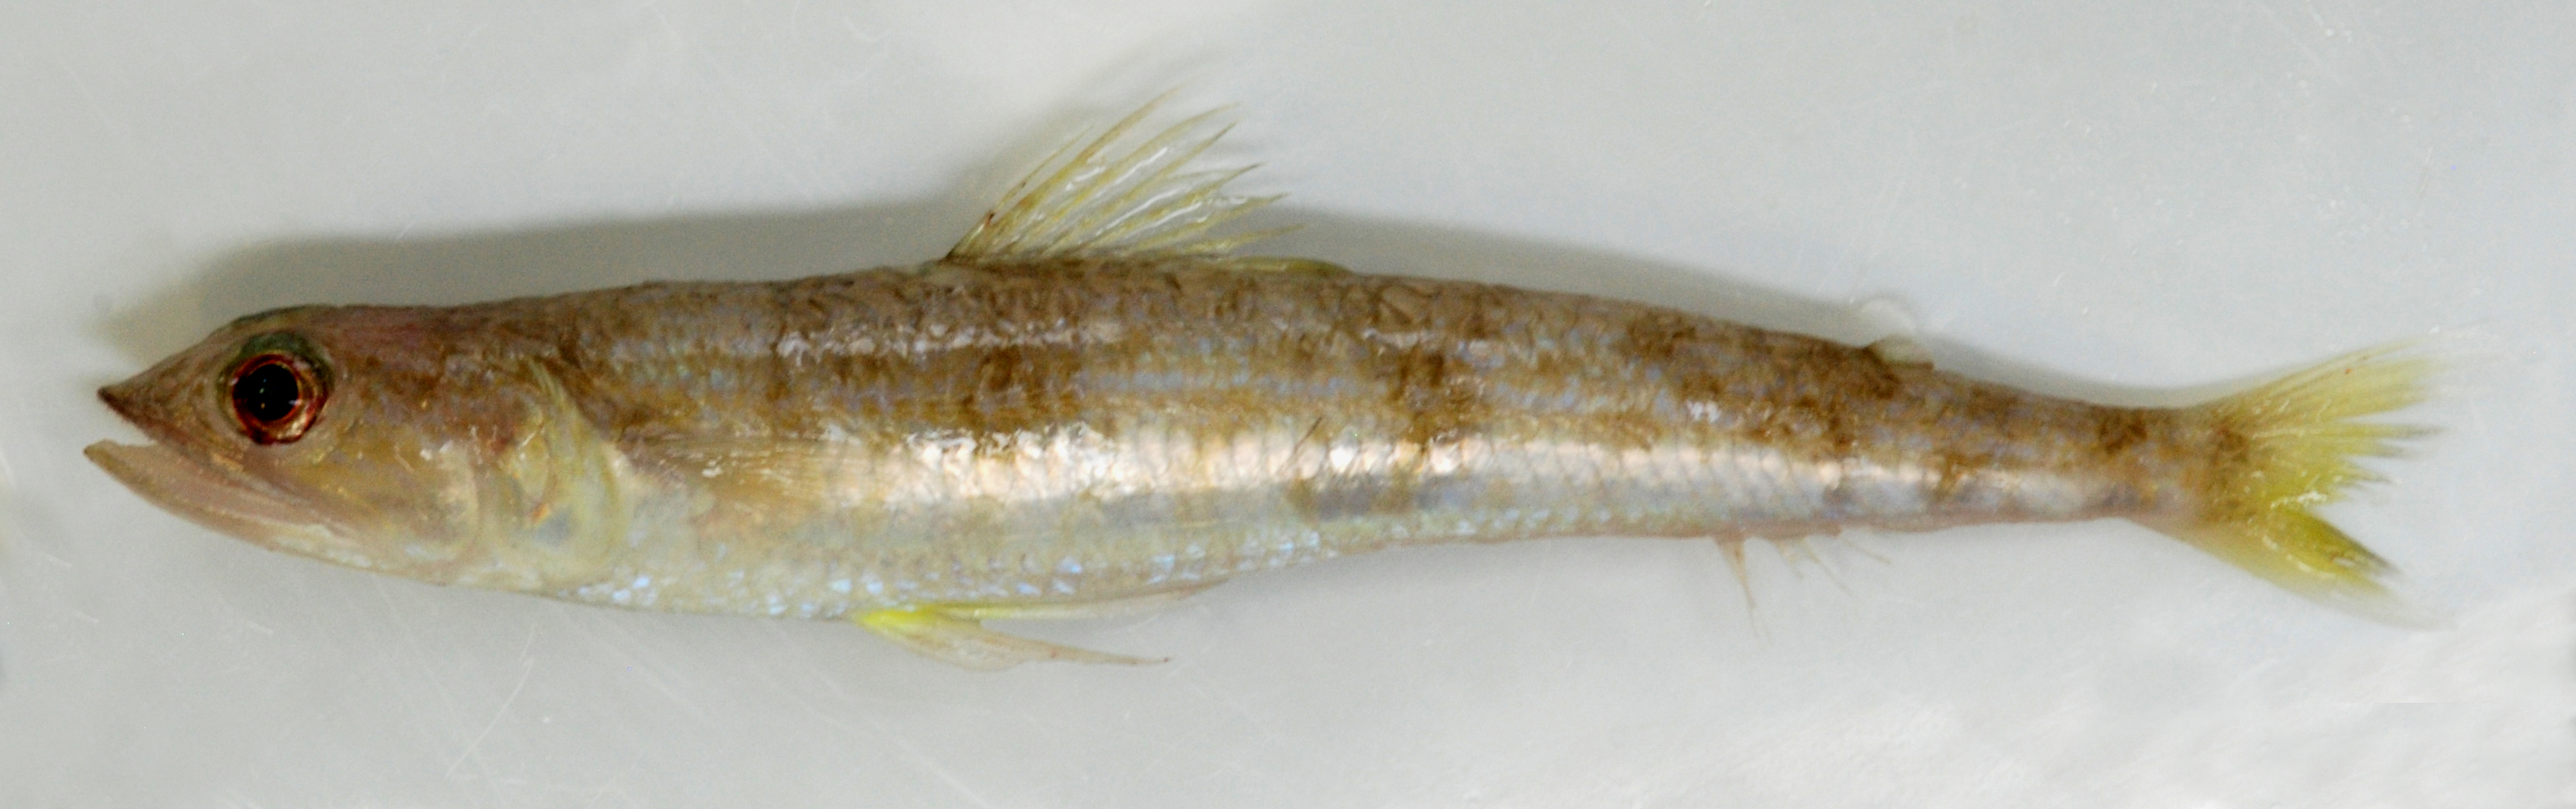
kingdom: Animalia
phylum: Chordata
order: Aulopiformes
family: Synodontidae
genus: Synodus
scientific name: Synodus oculeus
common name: Large-eye lizardfish
